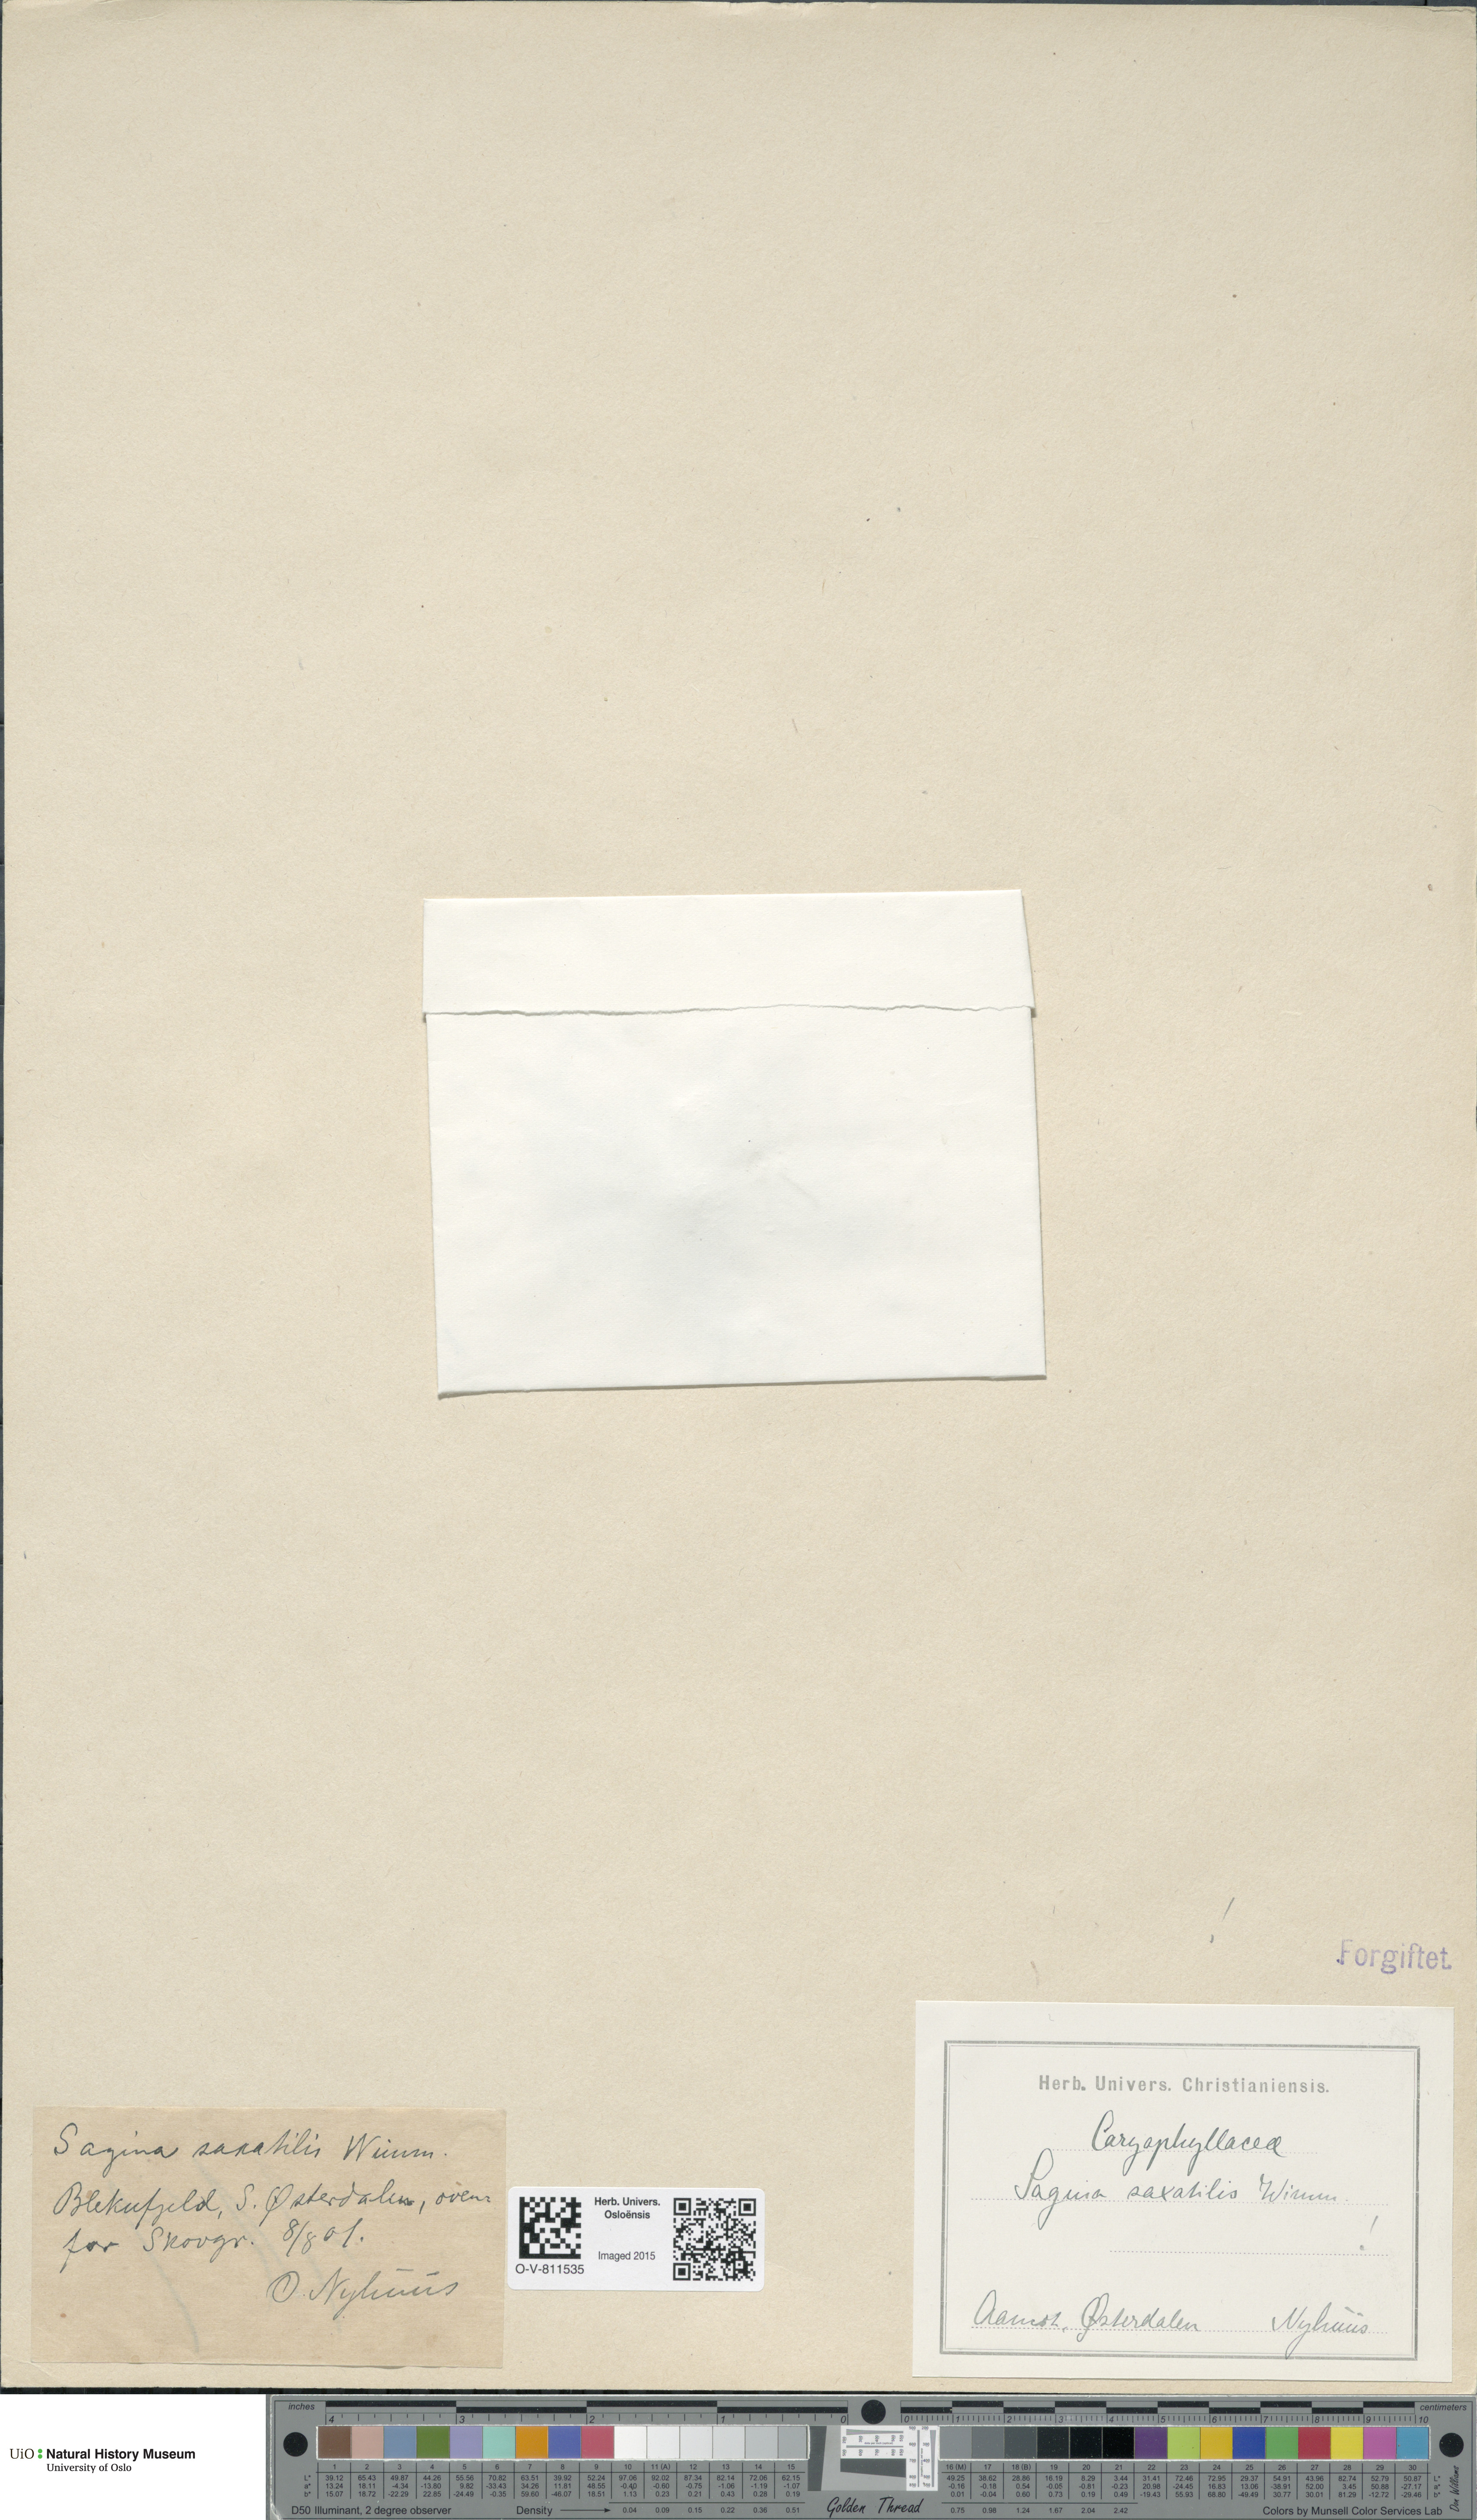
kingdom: Plantae
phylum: Tracheophyta
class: Magnoliopsida
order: Caryophyllales
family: Caryophyllaceae
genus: Sagina
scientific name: Sagina saginoides
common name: Alpine pearlwort
